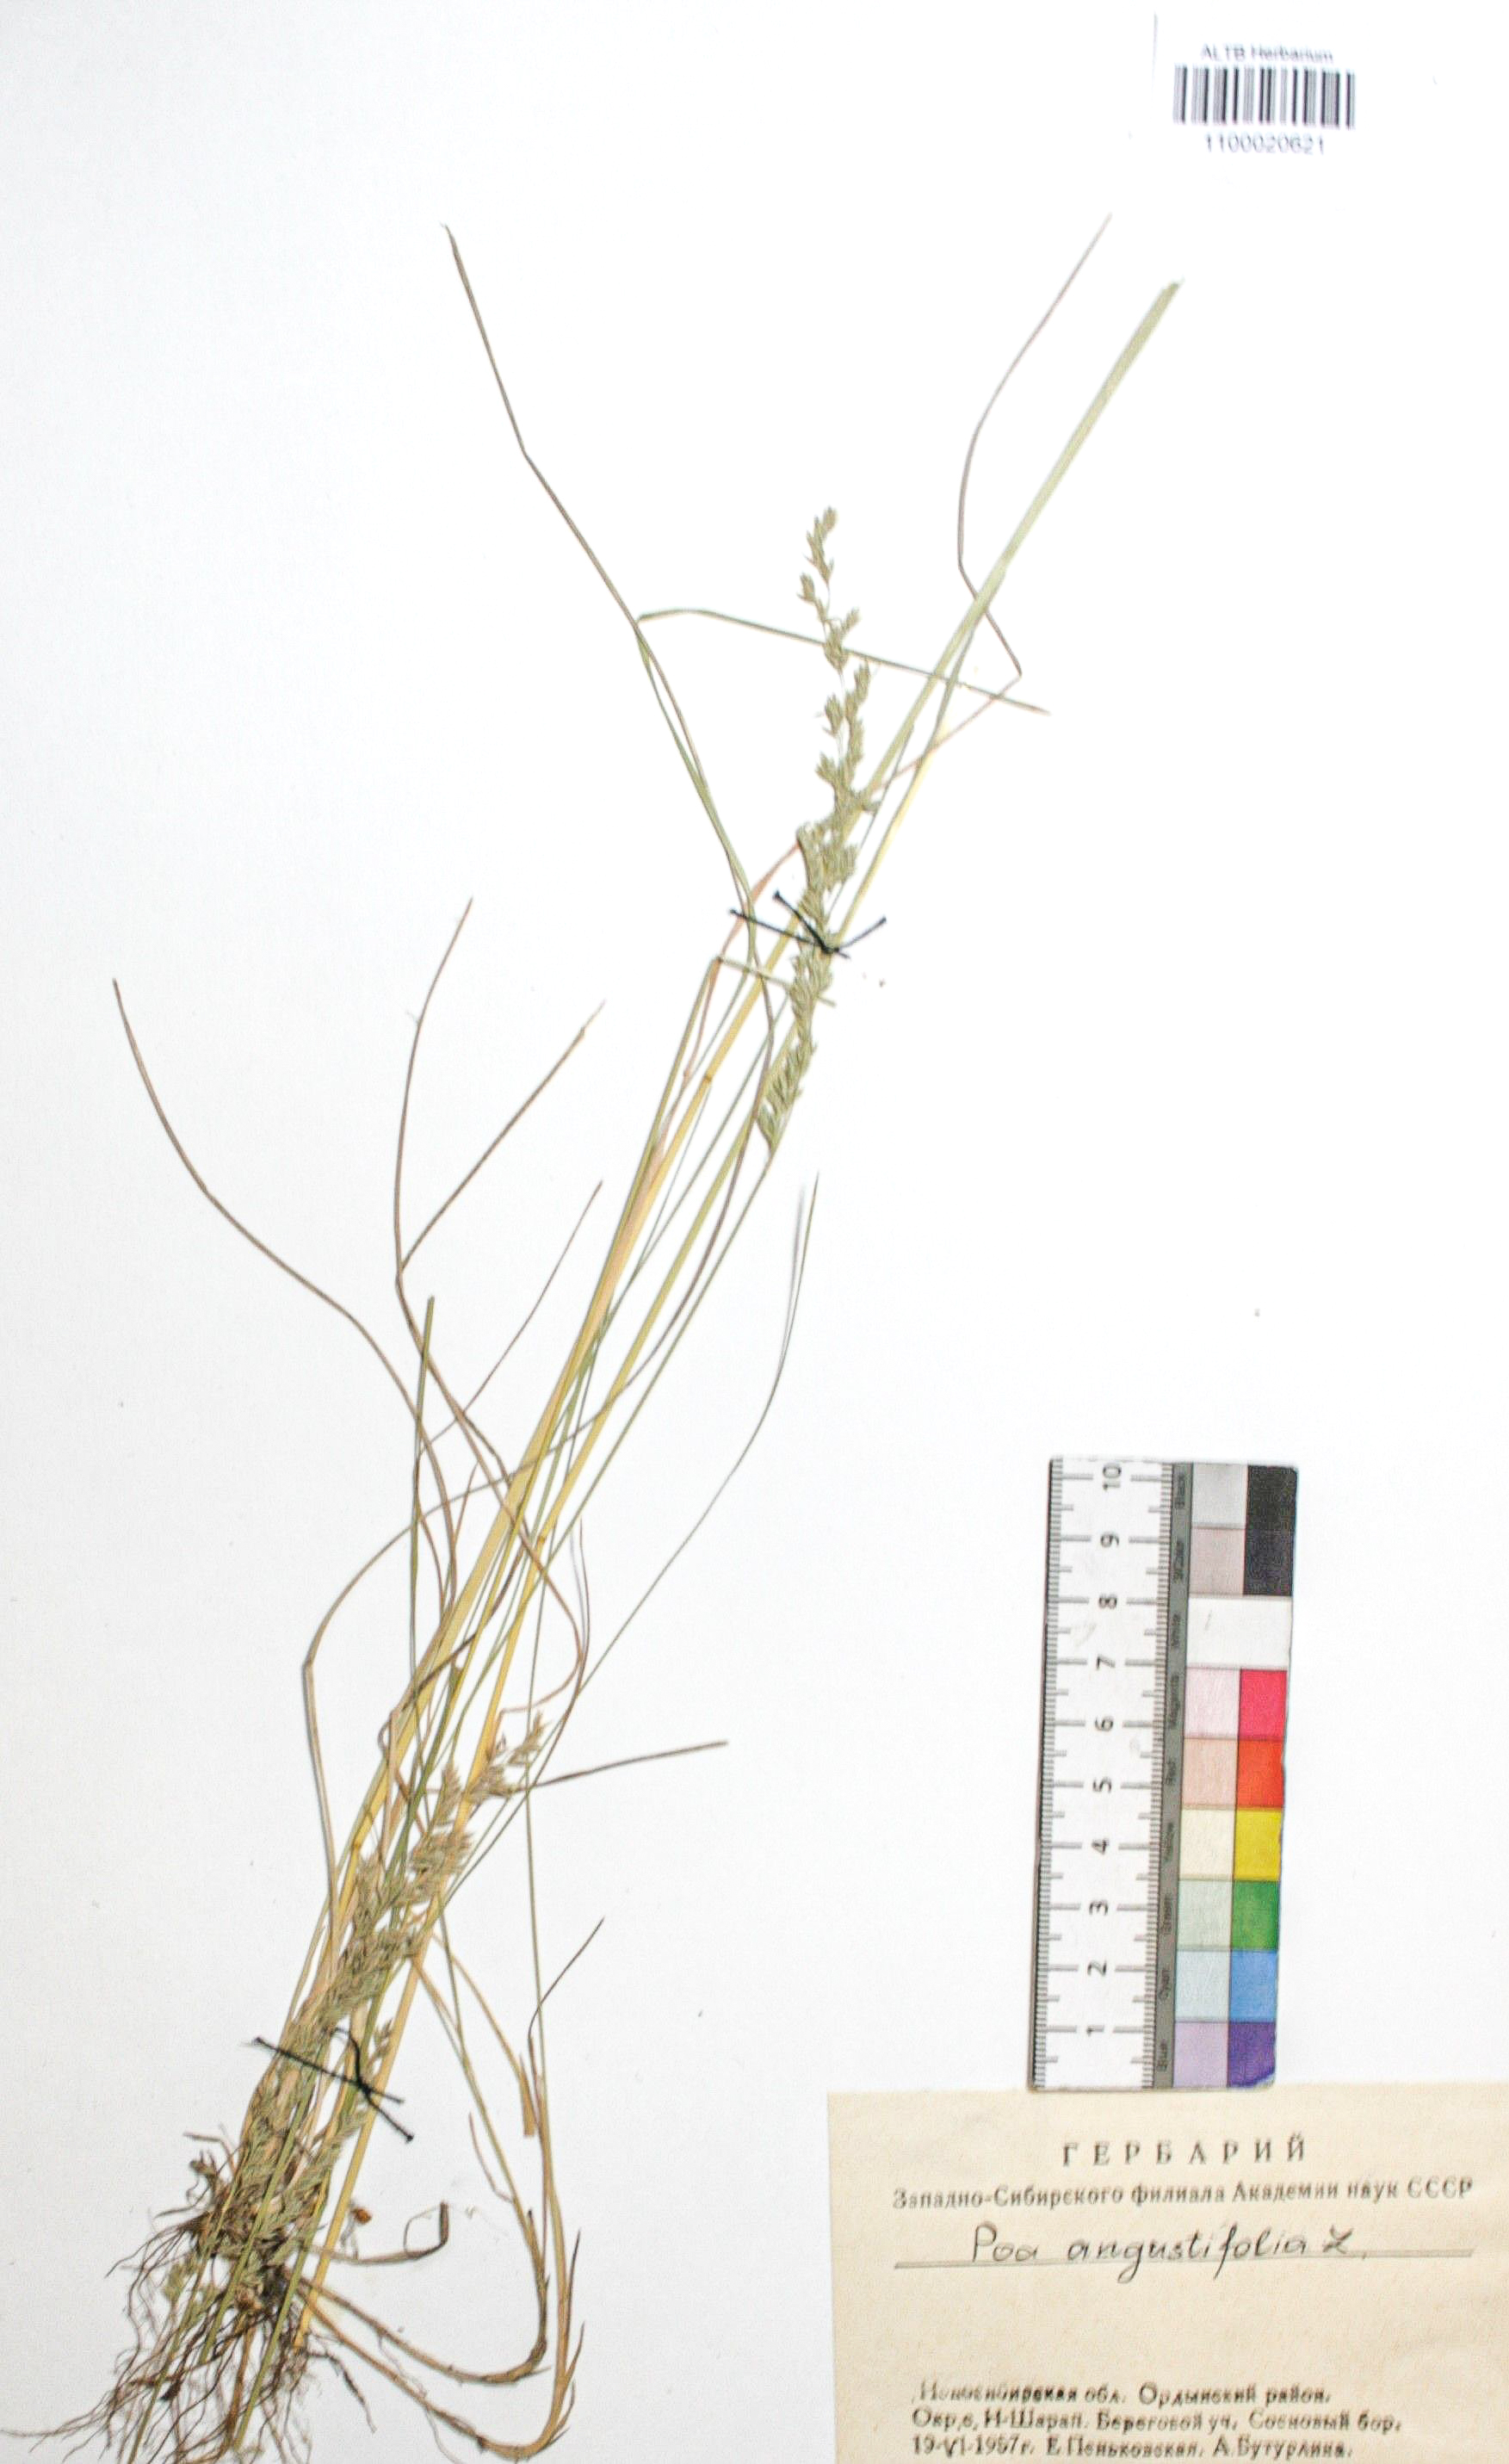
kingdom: Plantae
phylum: Tracheophyta
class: Liliopsida
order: Poales
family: Poaceae
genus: Poa
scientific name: Poa angustifolia
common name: Narrow-leaved meadow-grass
